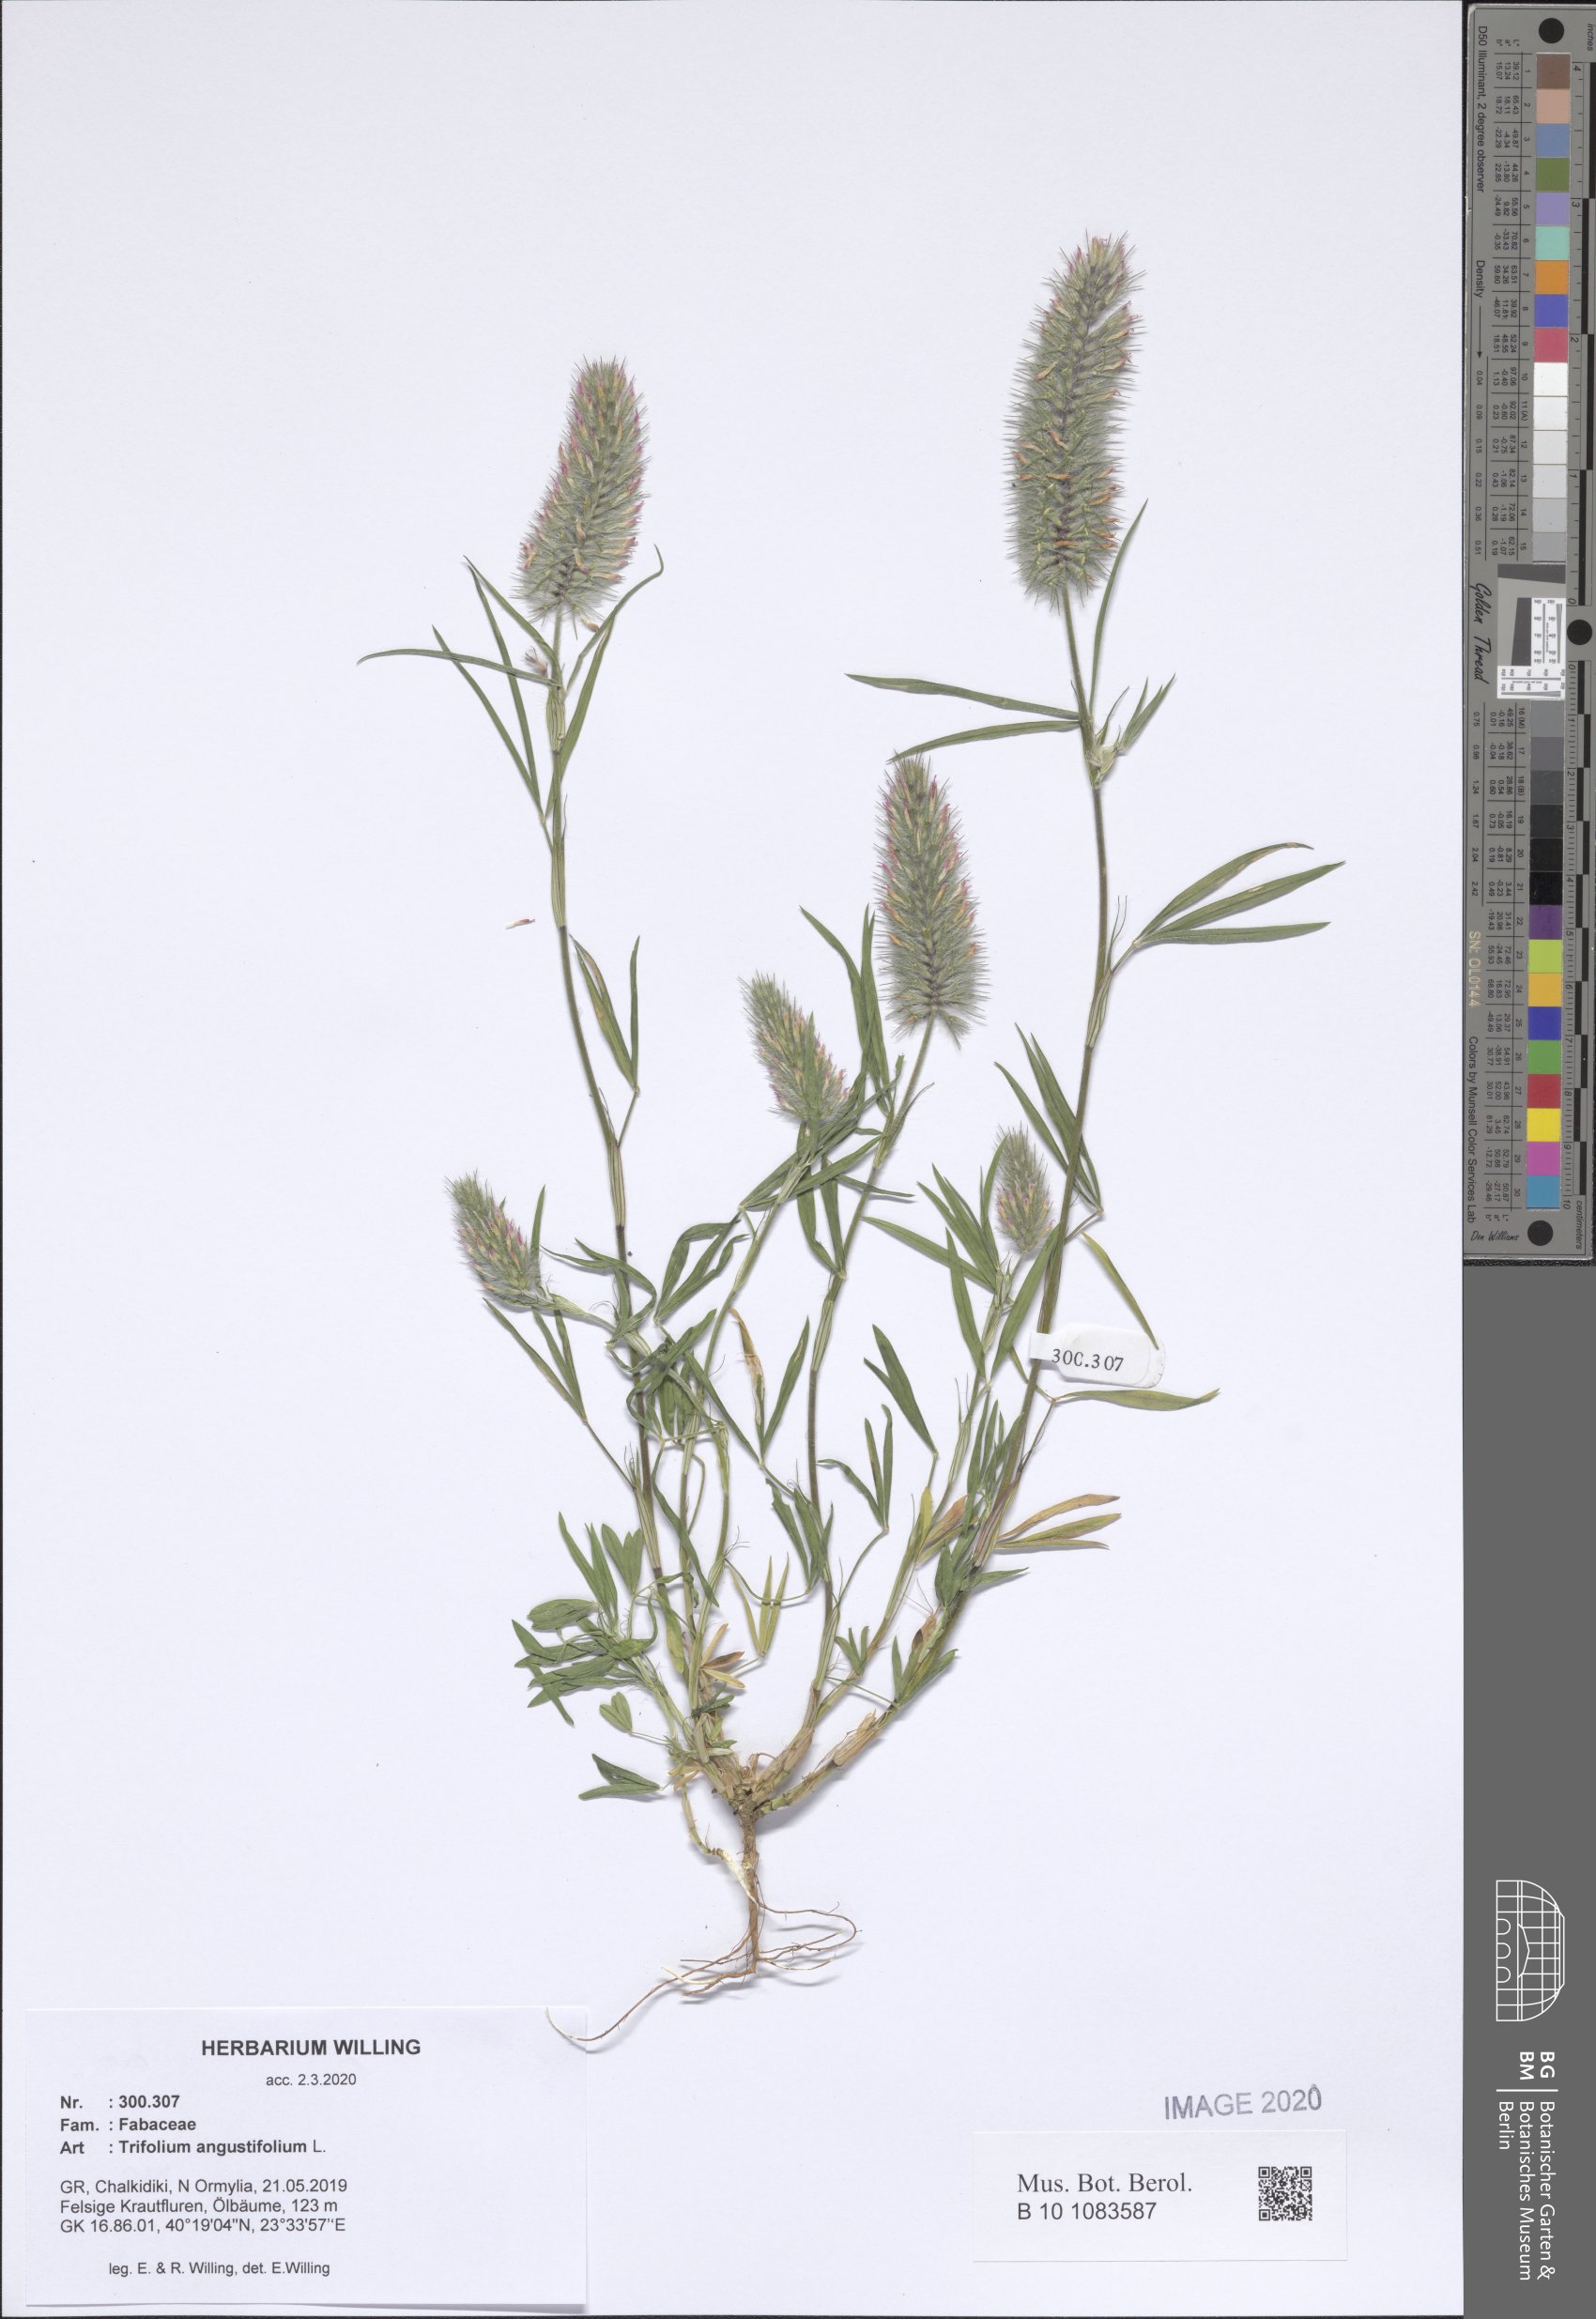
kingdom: Plantae
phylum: Tracheophyta
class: Magnoliopsida
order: Fabales
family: Fabaceae
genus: Trifolium
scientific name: Trifolium angustifolium
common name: Narrow clover
